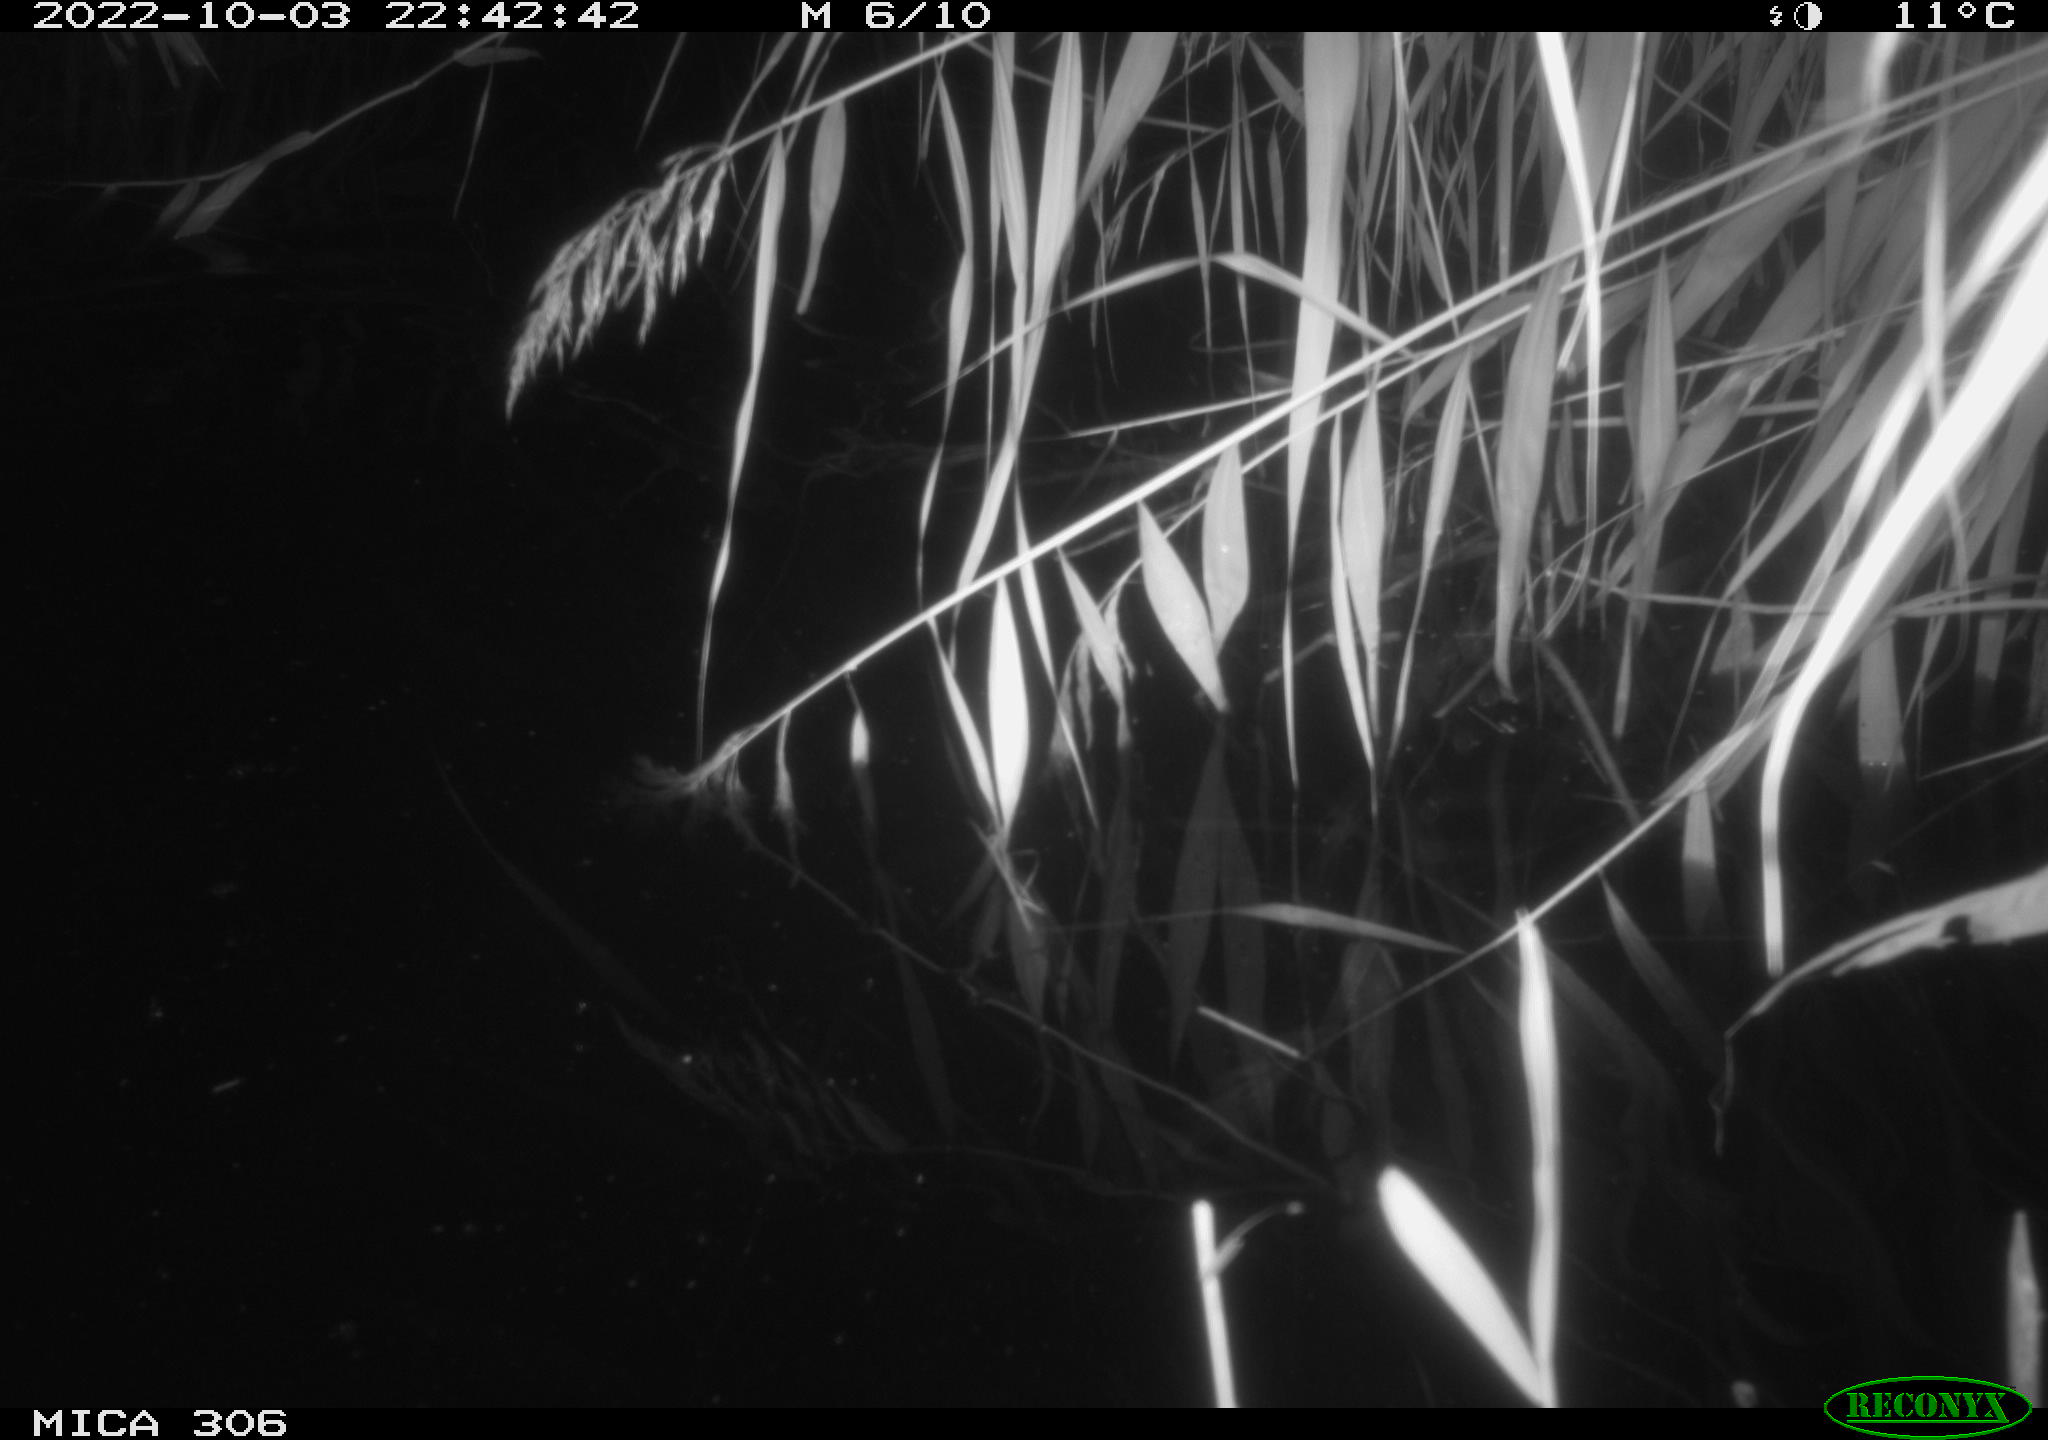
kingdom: Animalia
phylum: Chordata
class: Mammalia
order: Rodentia
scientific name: Rodentia
